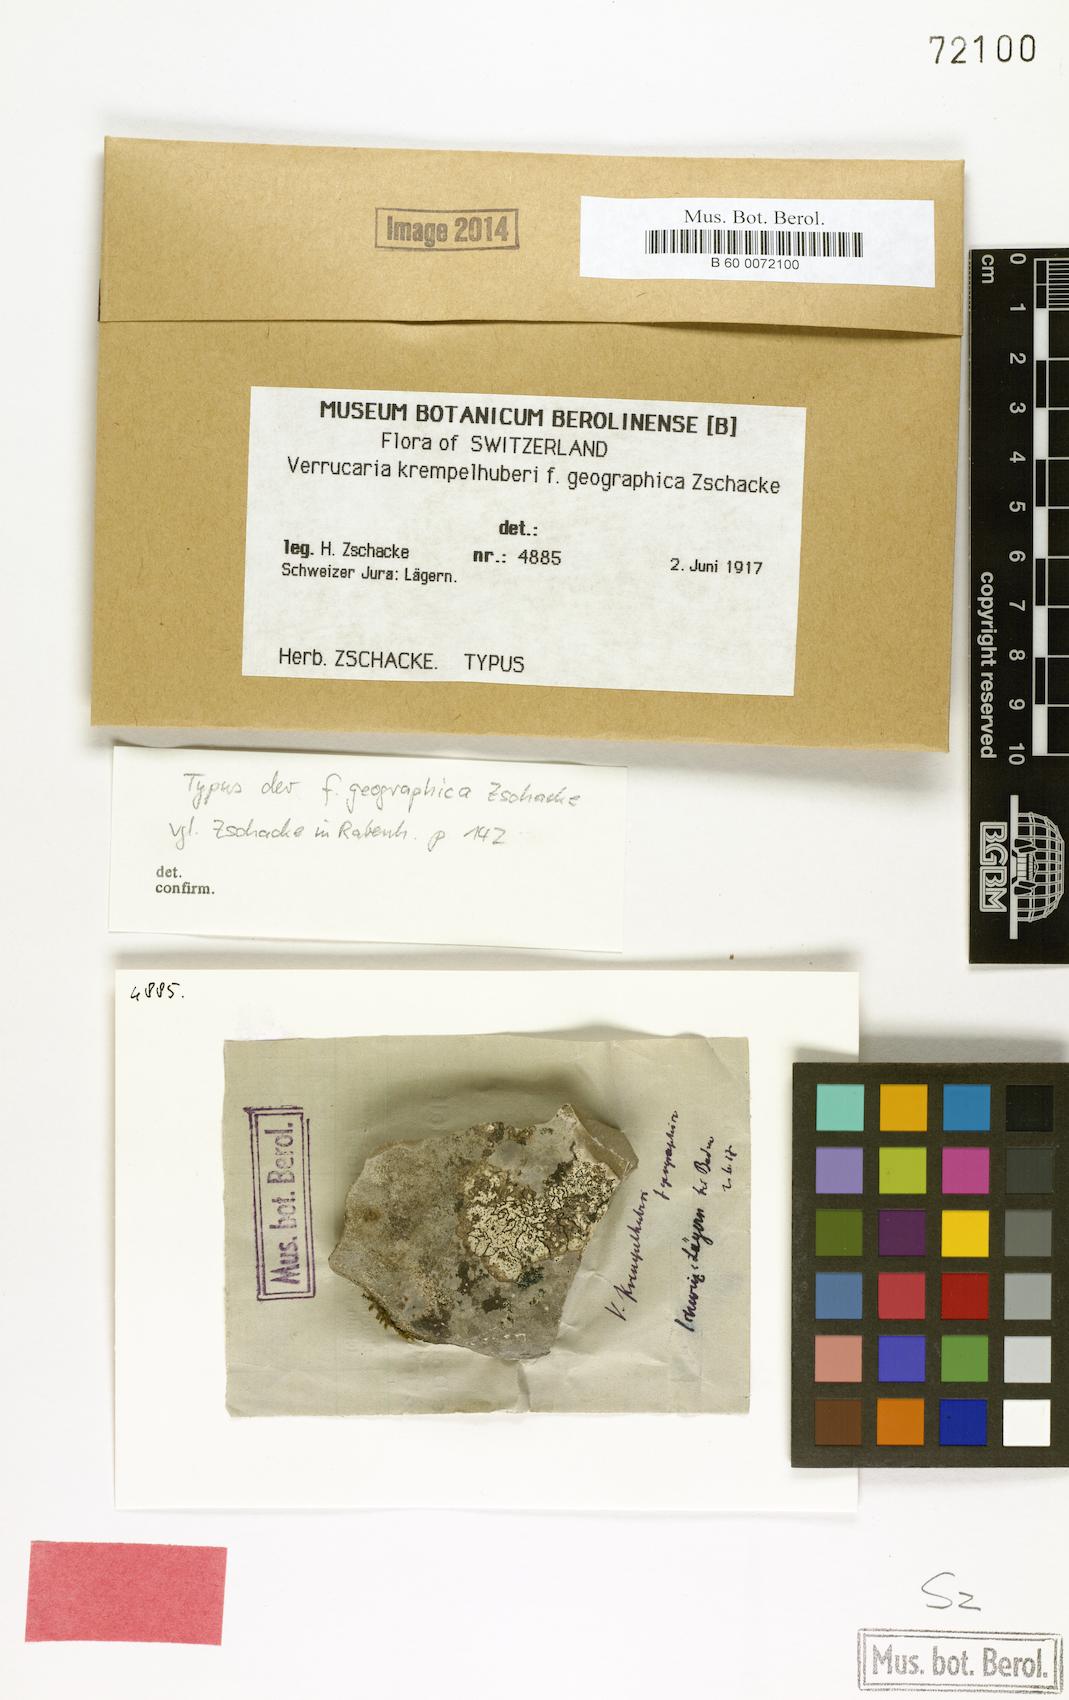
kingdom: Fungi
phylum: Ascomycota
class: Eurotiomycetes
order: Verrucariales
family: Verrucariaceae
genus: Verrucaria
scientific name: Verrucaria dolosa
